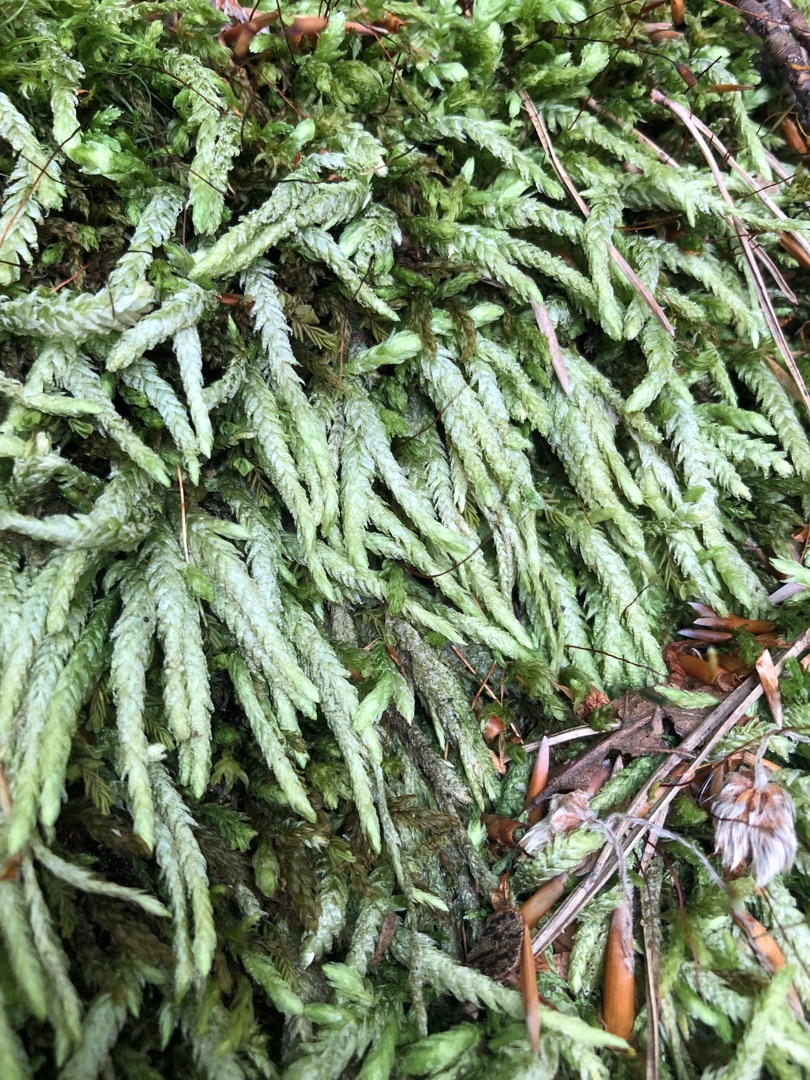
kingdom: Plantae
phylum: Bryophyta
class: Bryopsida
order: Hypnales
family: Plagiotheciaceae
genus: Plagiothecium
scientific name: Plagiothecium undulatum
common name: Bølget tæppemos
